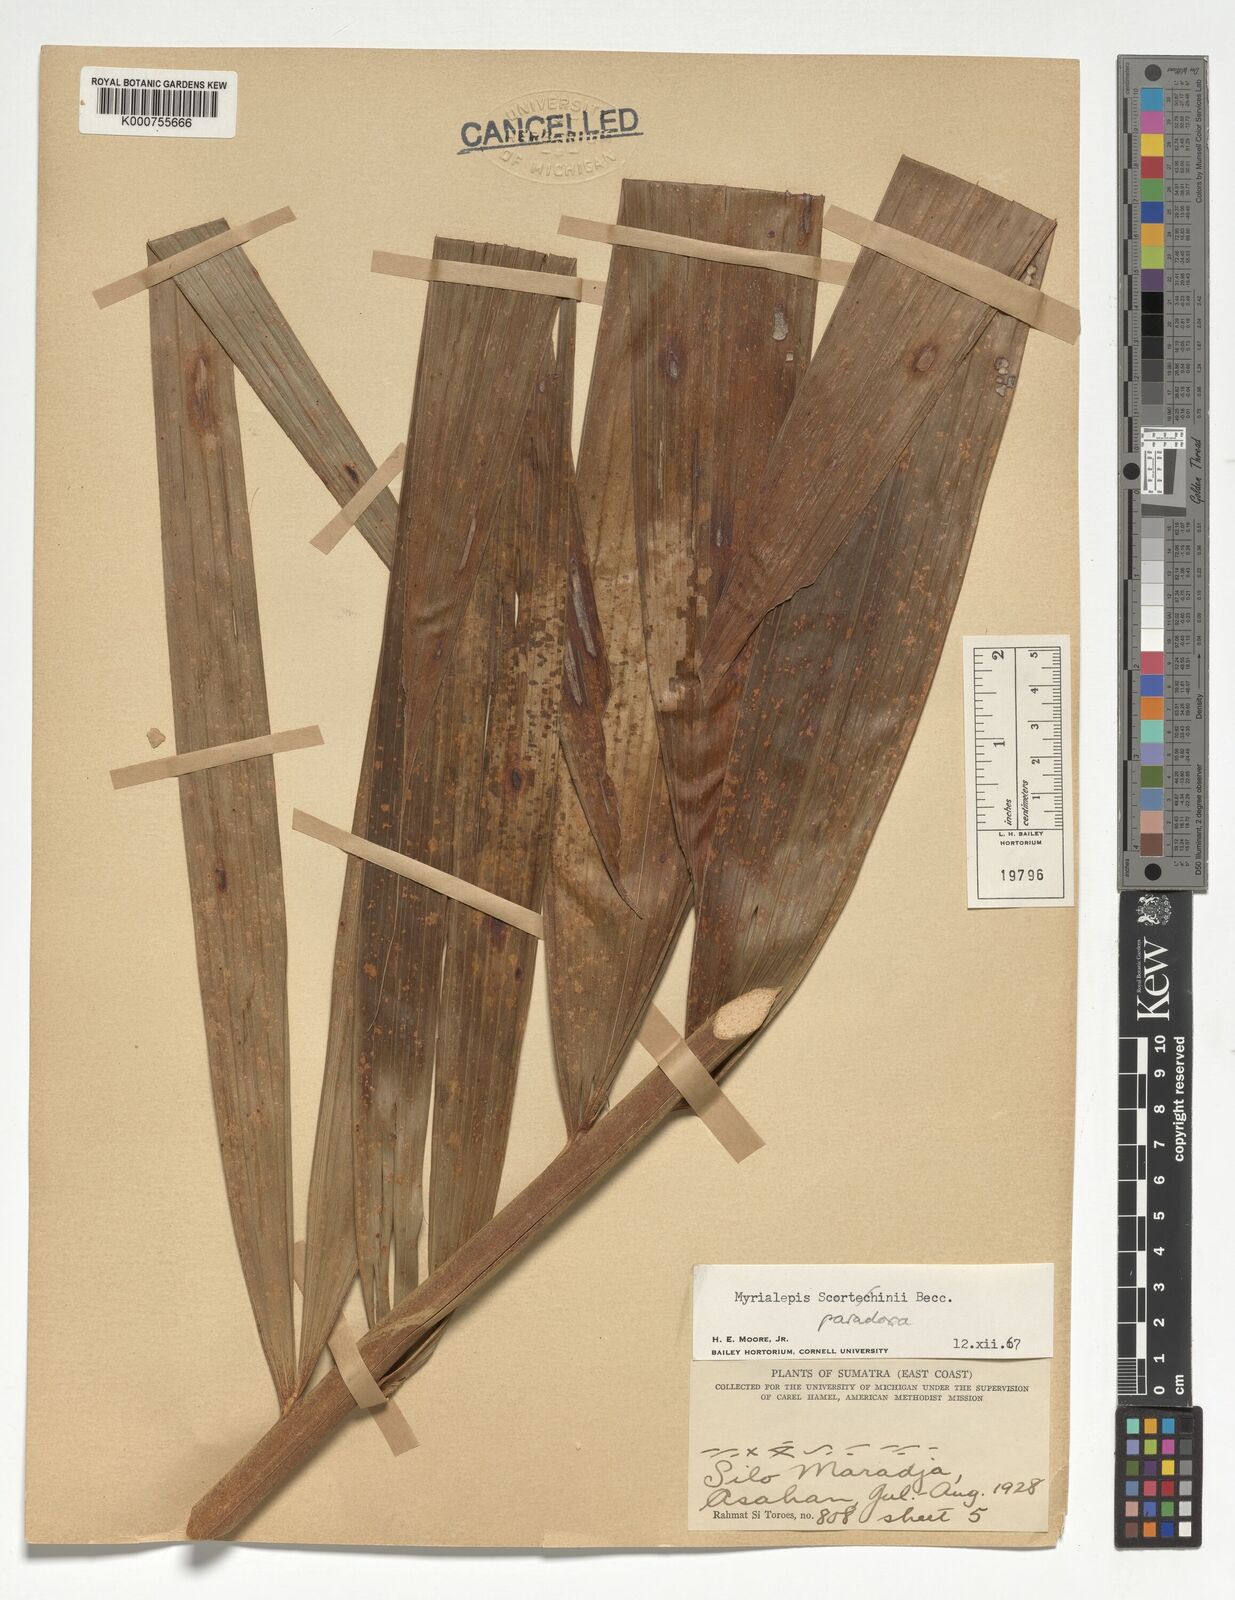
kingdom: Plantae
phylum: Tracheophyta
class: Liliopsida
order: Arecales
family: Arecaceae
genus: Myrialepis
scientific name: Myrialepis paradoxa
